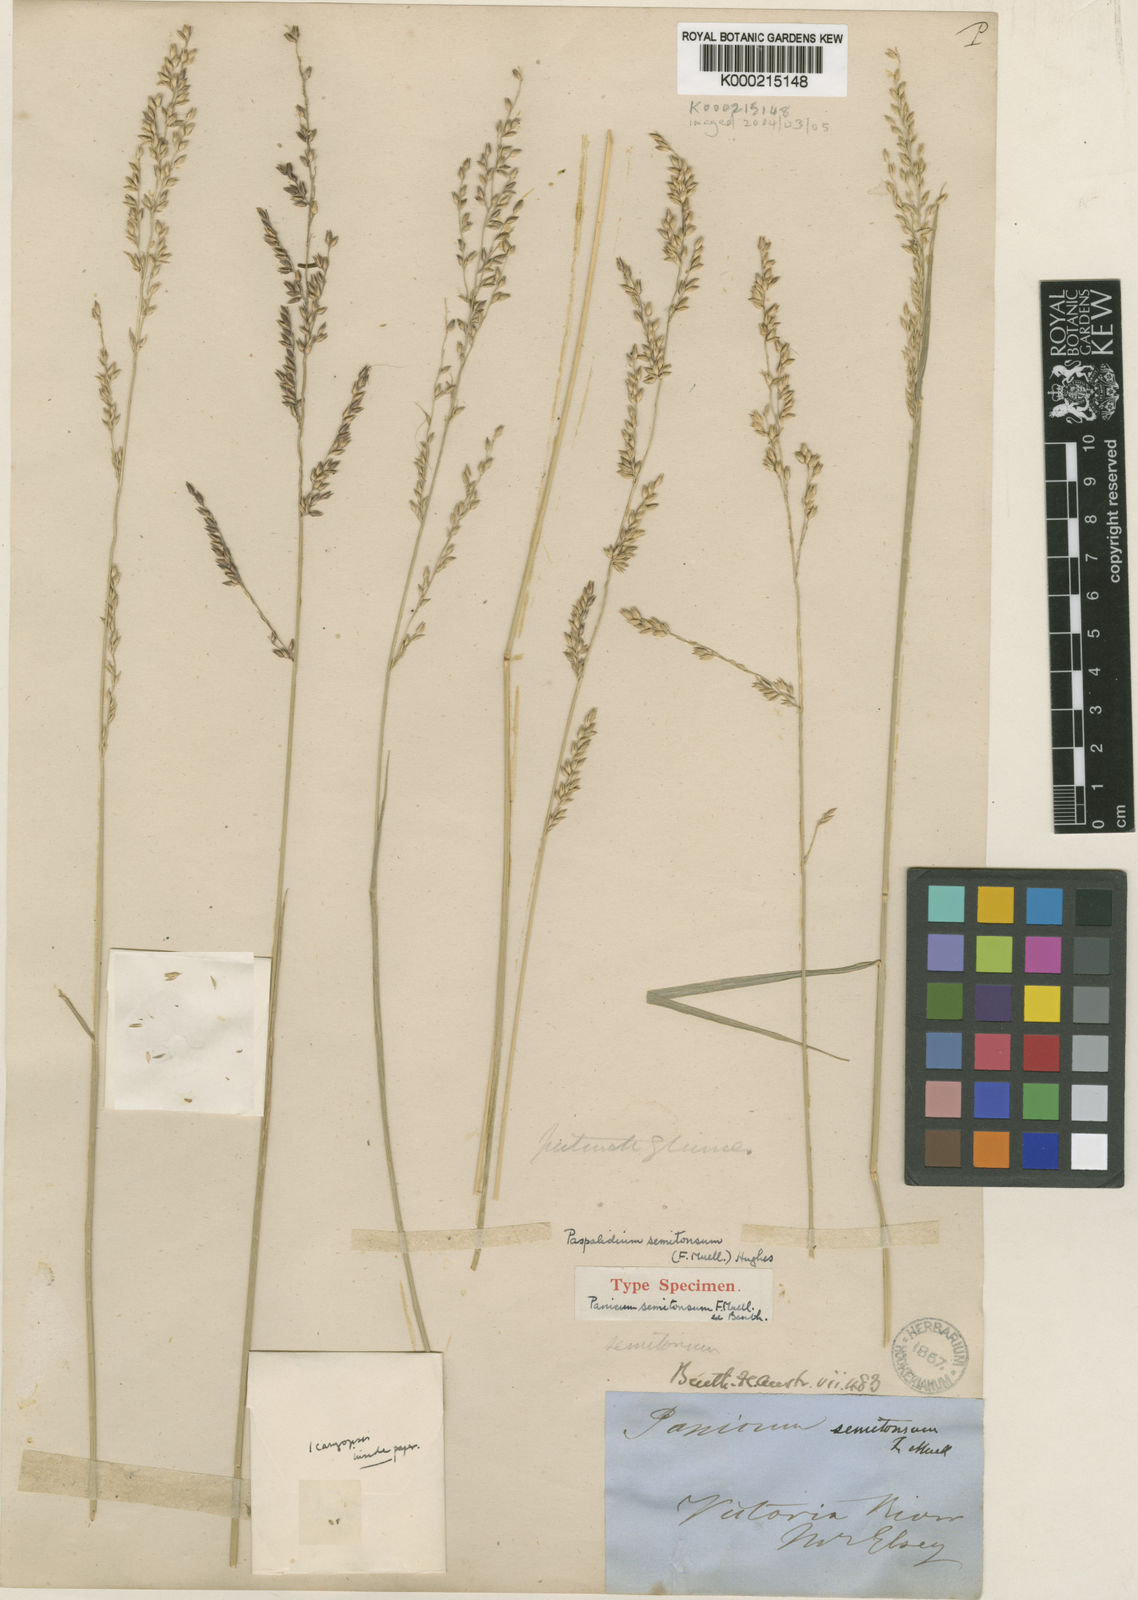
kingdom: Plantae
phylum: Tracheophyta
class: Liliopsida
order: Poales
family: Poaceae
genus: Whiteochloa
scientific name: Whiteochloa semitonsa
